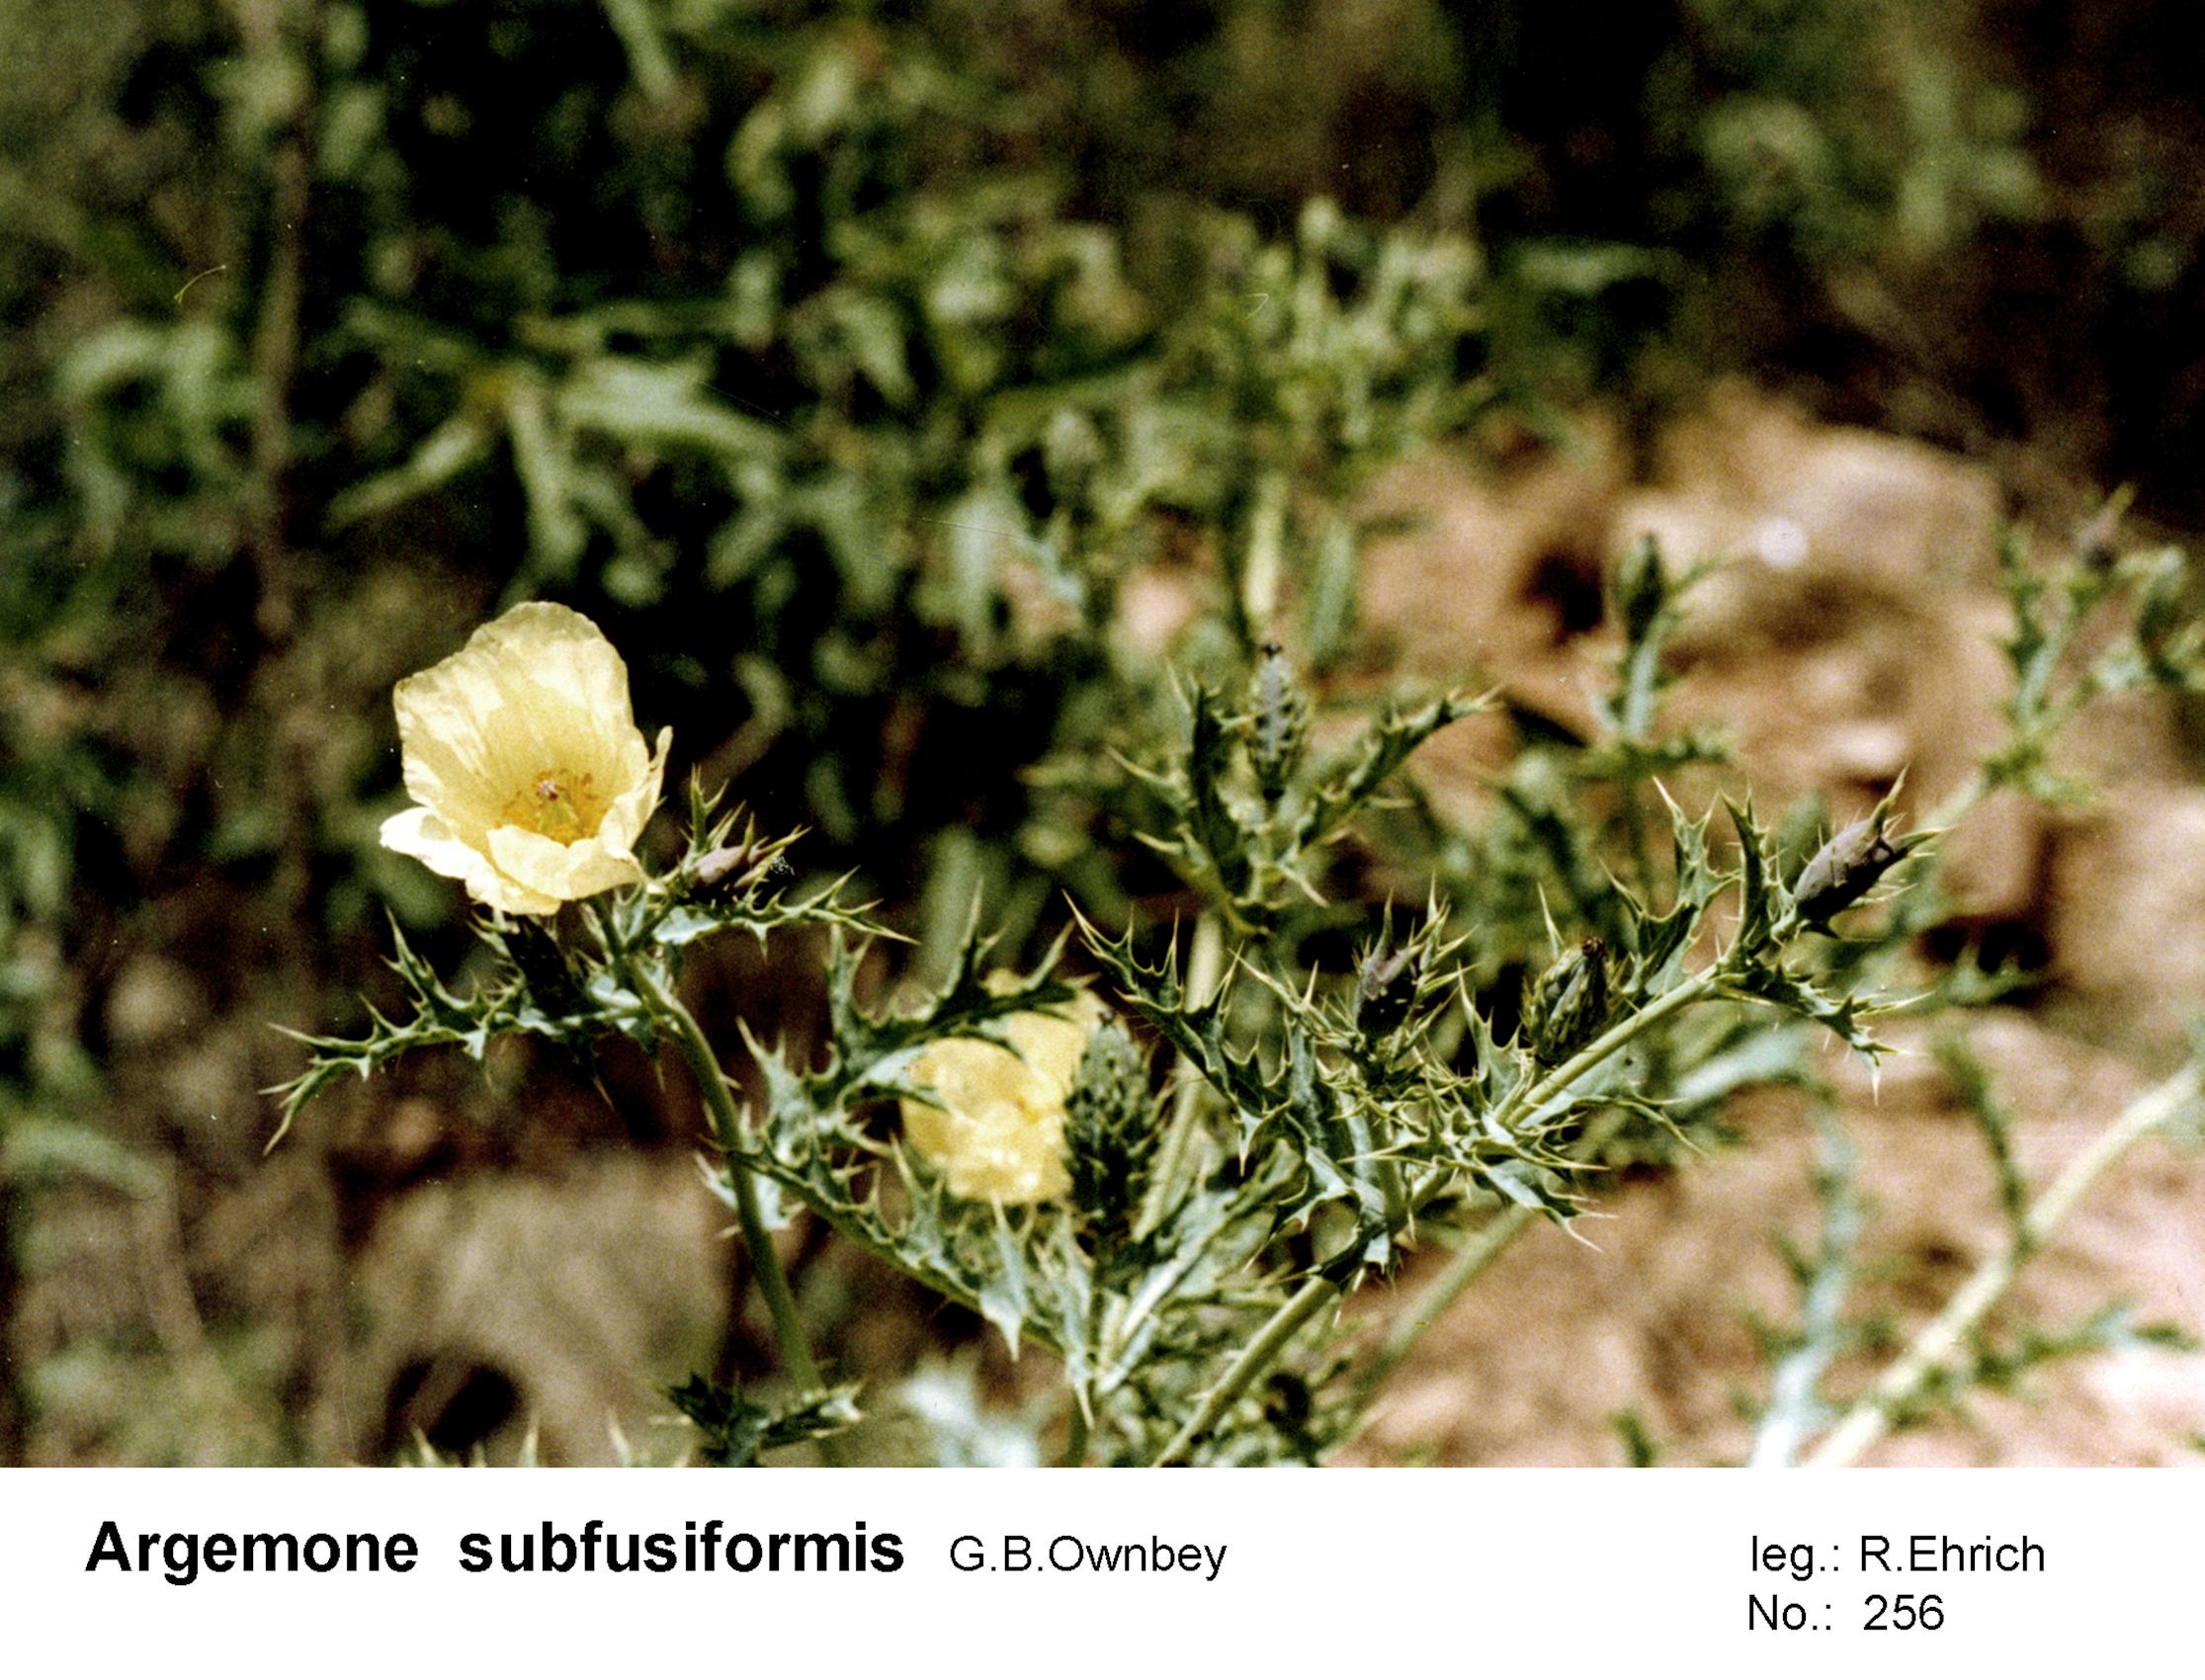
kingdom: Plantae
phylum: Tracheophyta
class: Magnoliopsida
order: Ranunculales
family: Papaveraceae
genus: Argemone
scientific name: Argemone subfusiformis
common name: American-poppy
